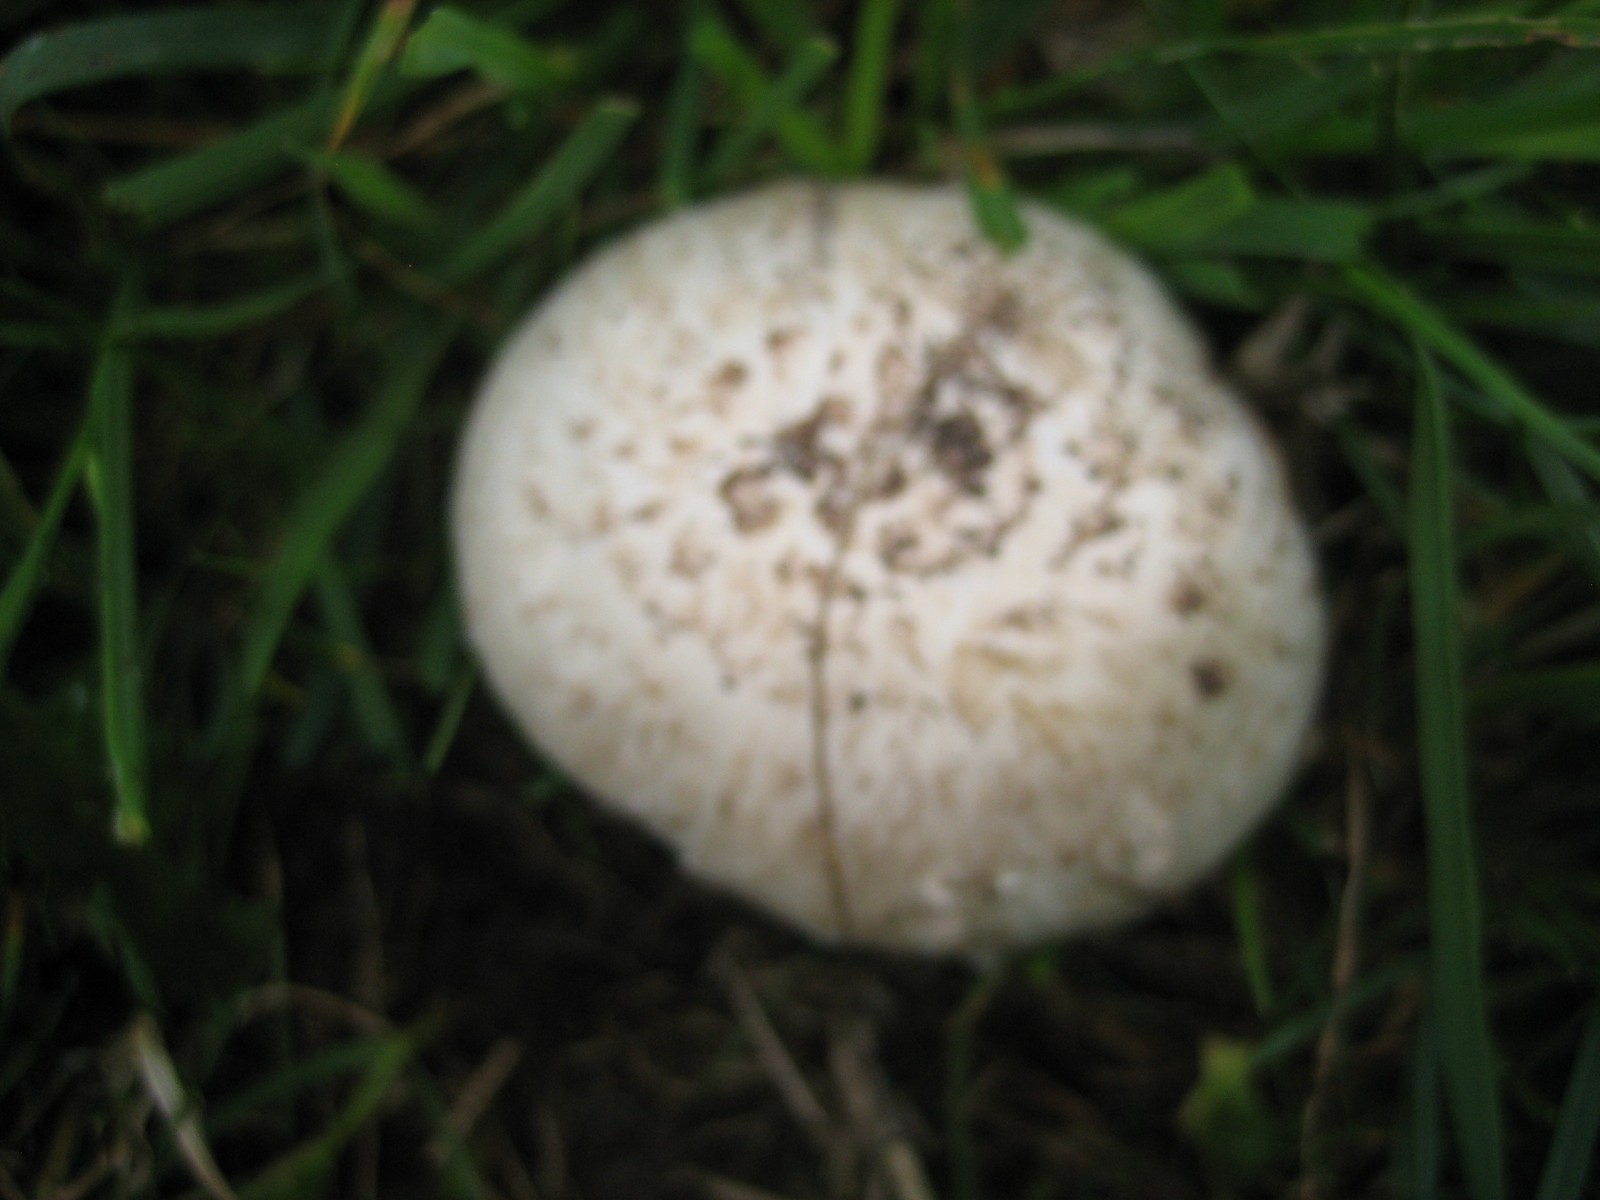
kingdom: Fungi
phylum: Basidiomycota
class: Agaricomycetes
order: Agaricales
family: Agaricaceae
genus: Agaricus
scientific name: Agaricus
